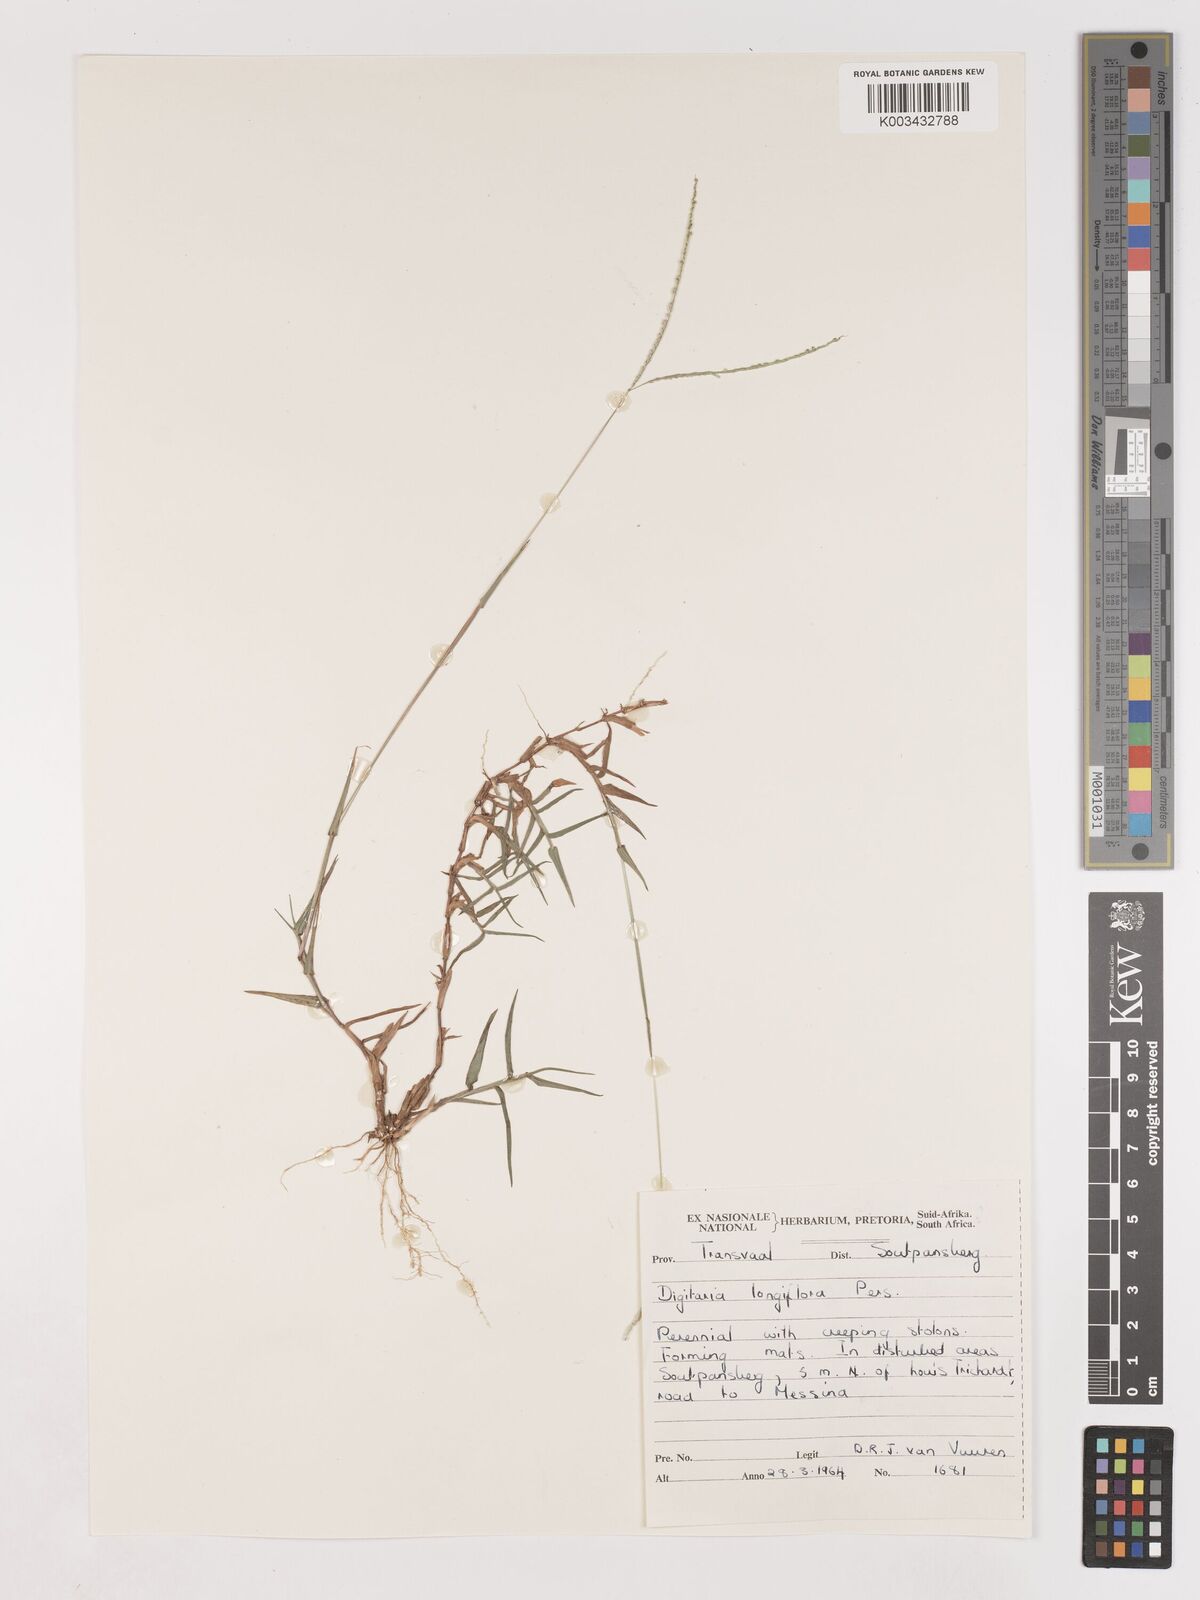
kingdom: Plantae
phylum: Tracheophyta
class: Liliopsida
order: Poales
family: Poaceae
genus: Digitaria
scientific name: Digitaria longiflora
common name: Wire crabgrass
